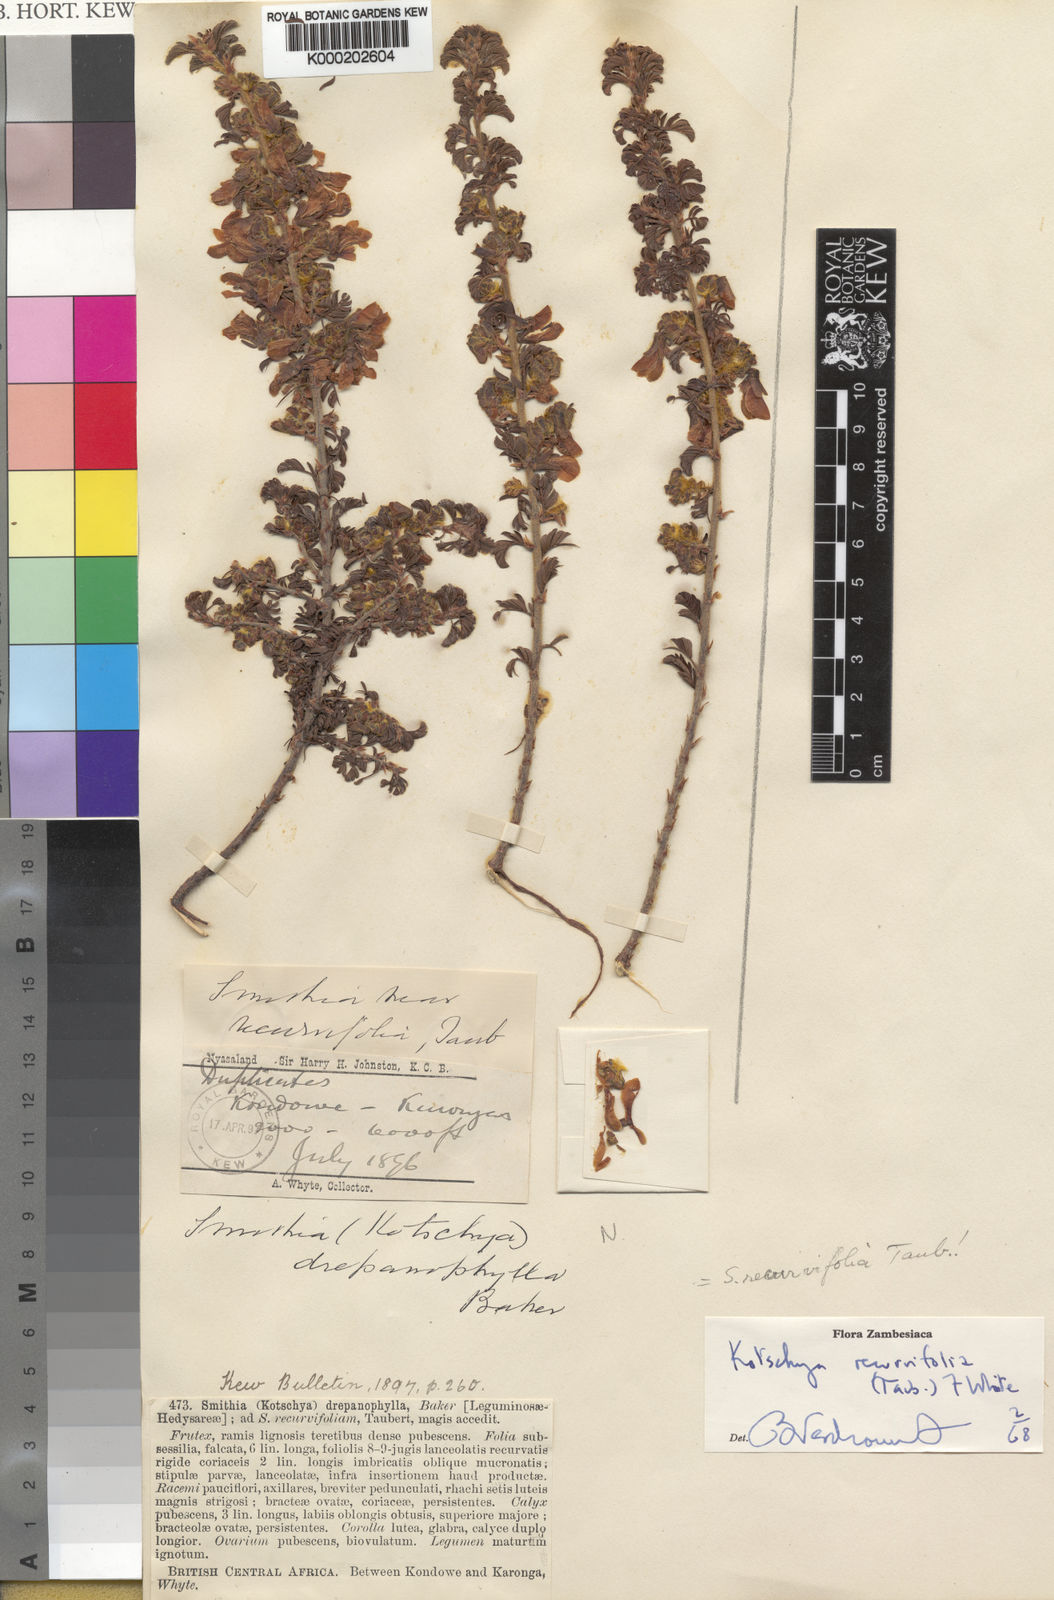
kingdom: Plantae
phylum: Tracheophyta
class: Magnoliopsida
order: Fabales
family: Fabaceae
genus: Kotschya
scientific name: Kotschya recurvifolia
